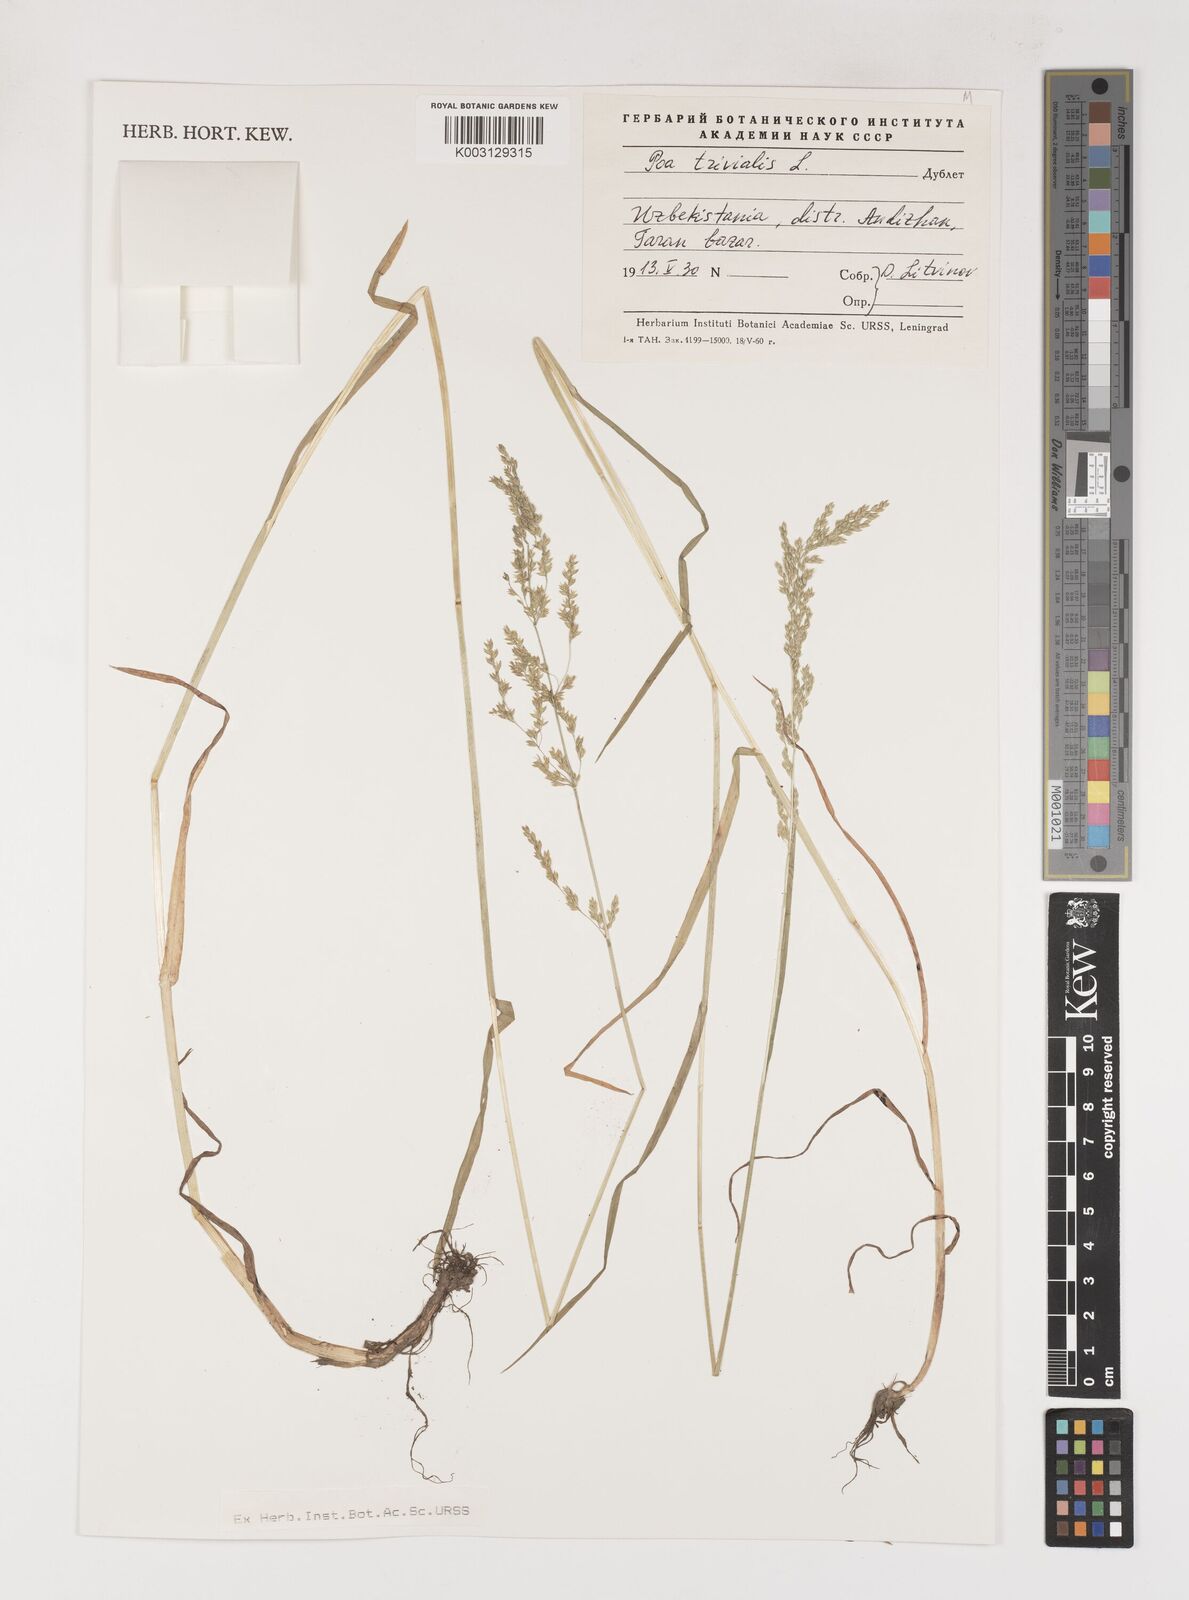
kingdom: Plantae
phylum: Tracheophyta
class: Liliopsida
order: Poales
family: Poaceae
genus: Poa
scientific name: Poa trivialis
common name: Rough bluegrass
